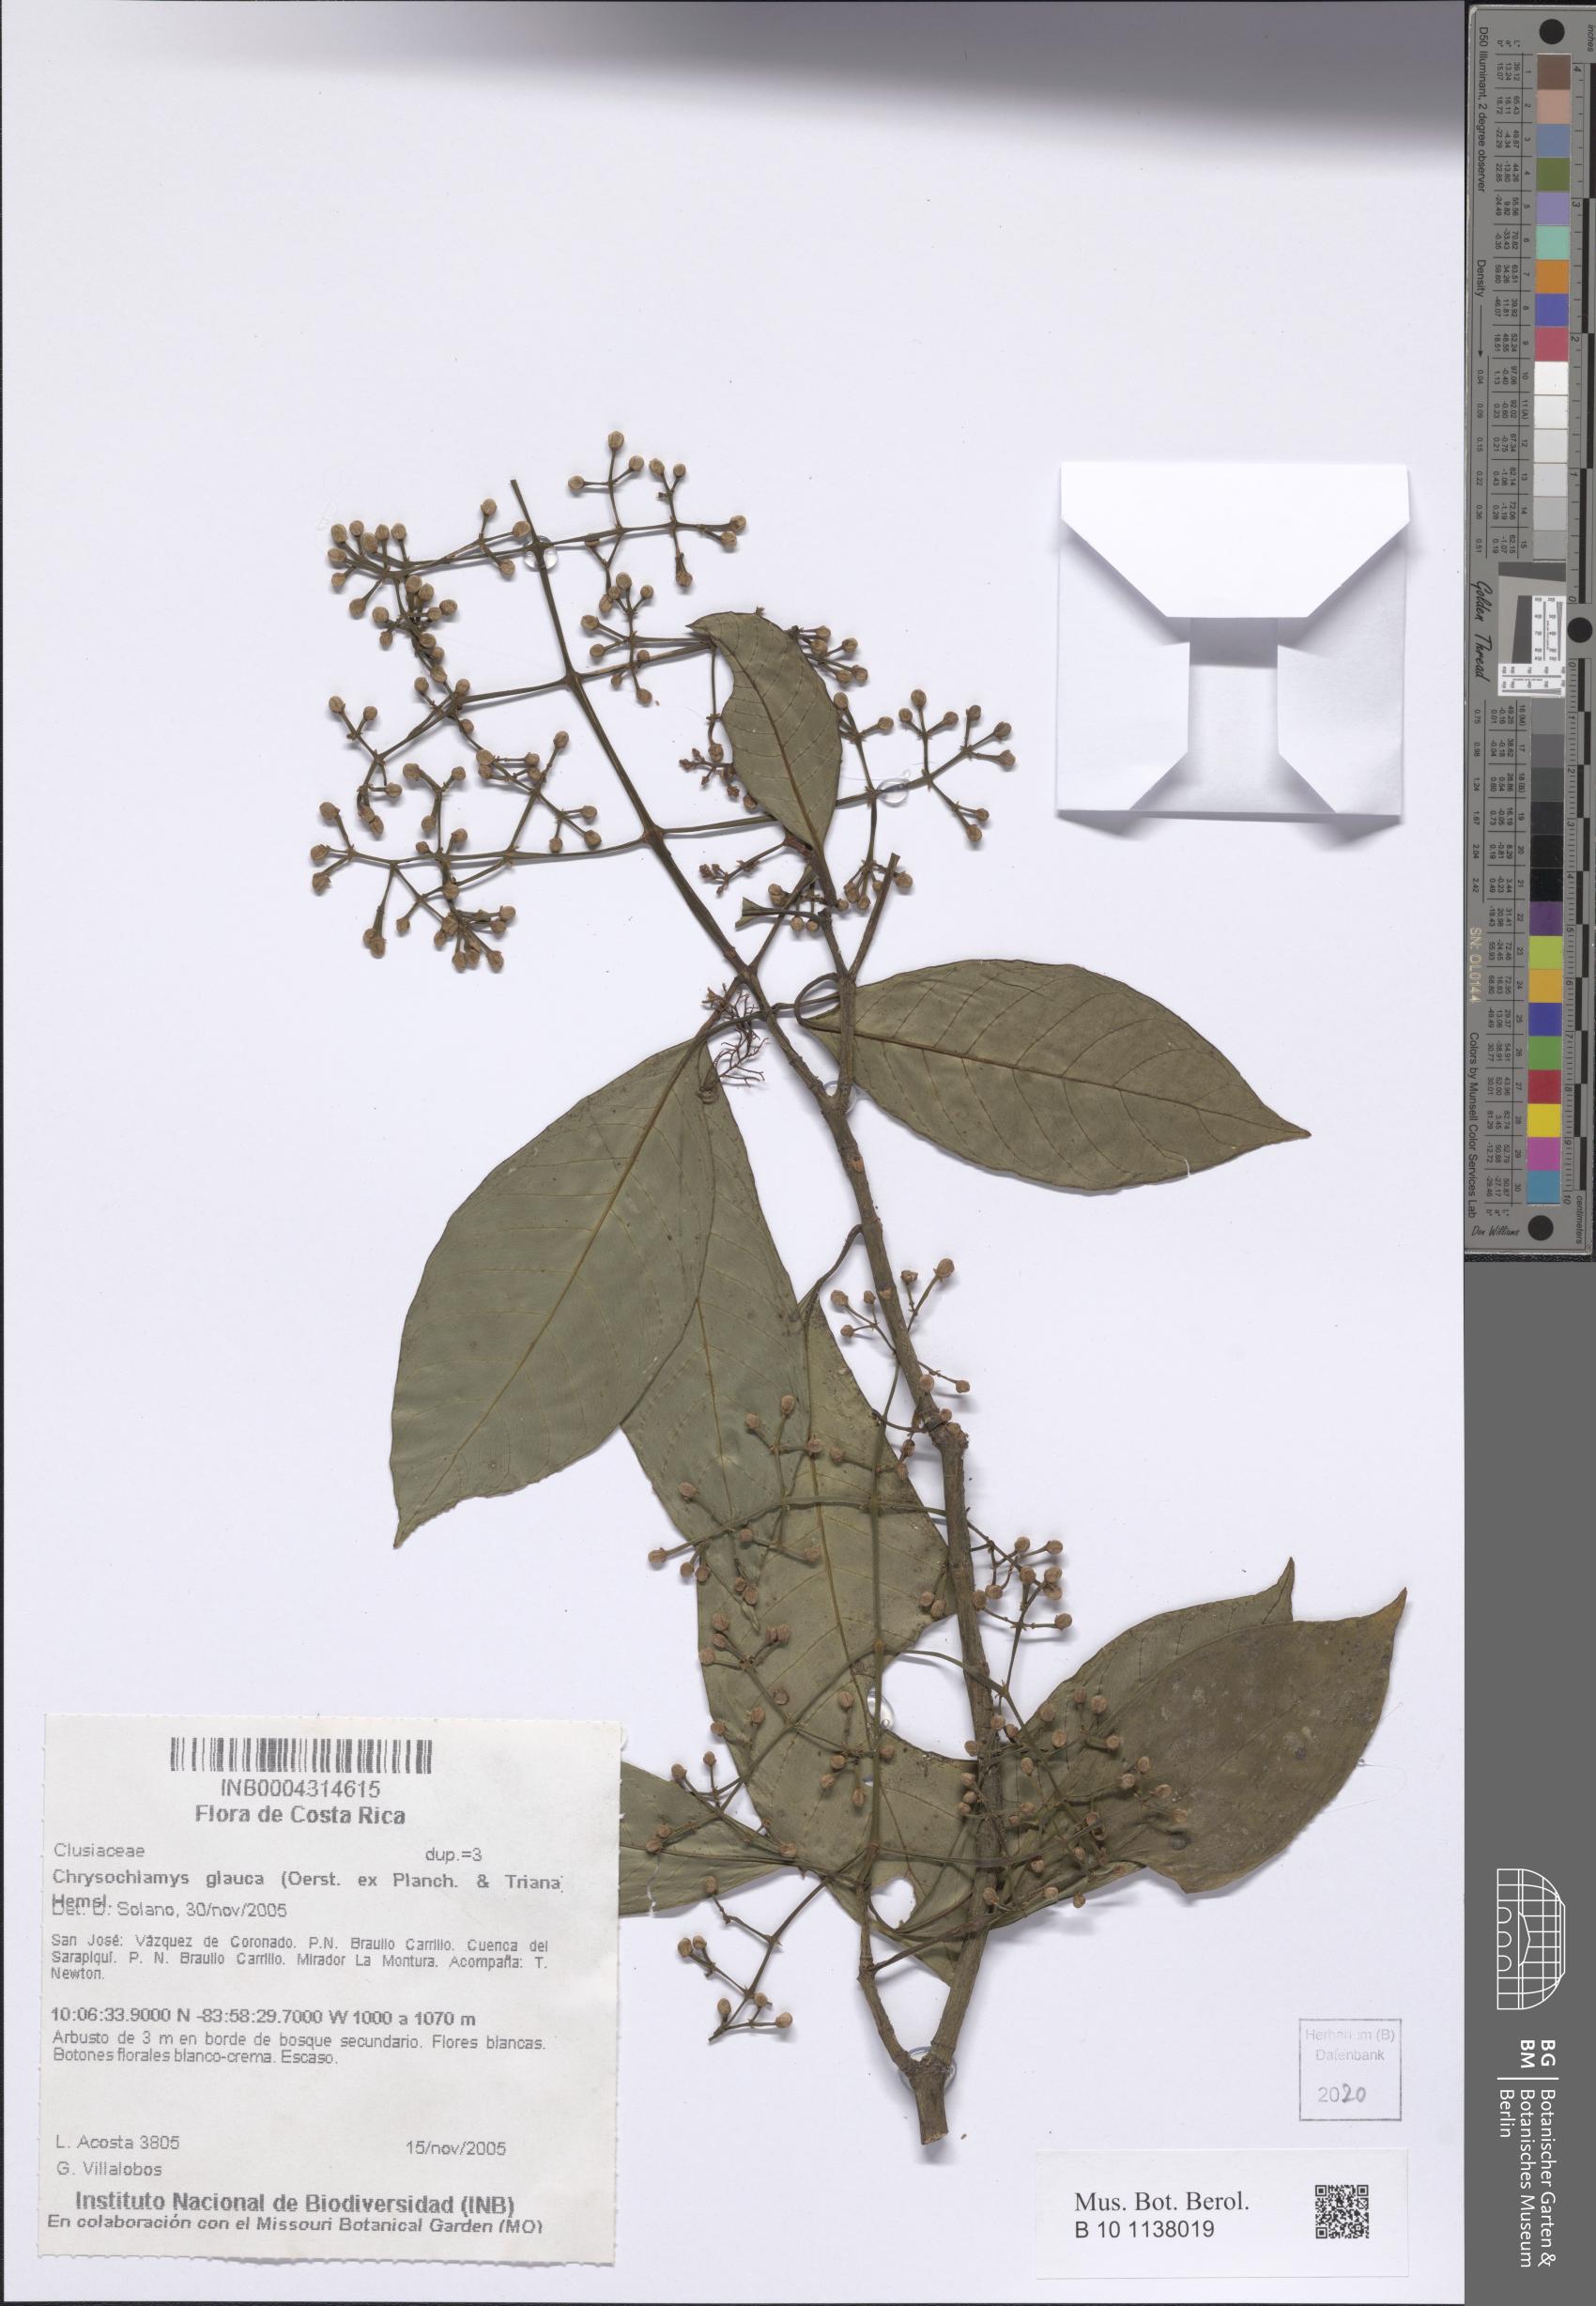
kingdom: Plantae
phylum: Tracheophyta
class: Magnoliopsida
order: Malpighiales
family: Clusiaceae
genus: Chrysochlamys
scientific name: Chrysochlamys glauca
